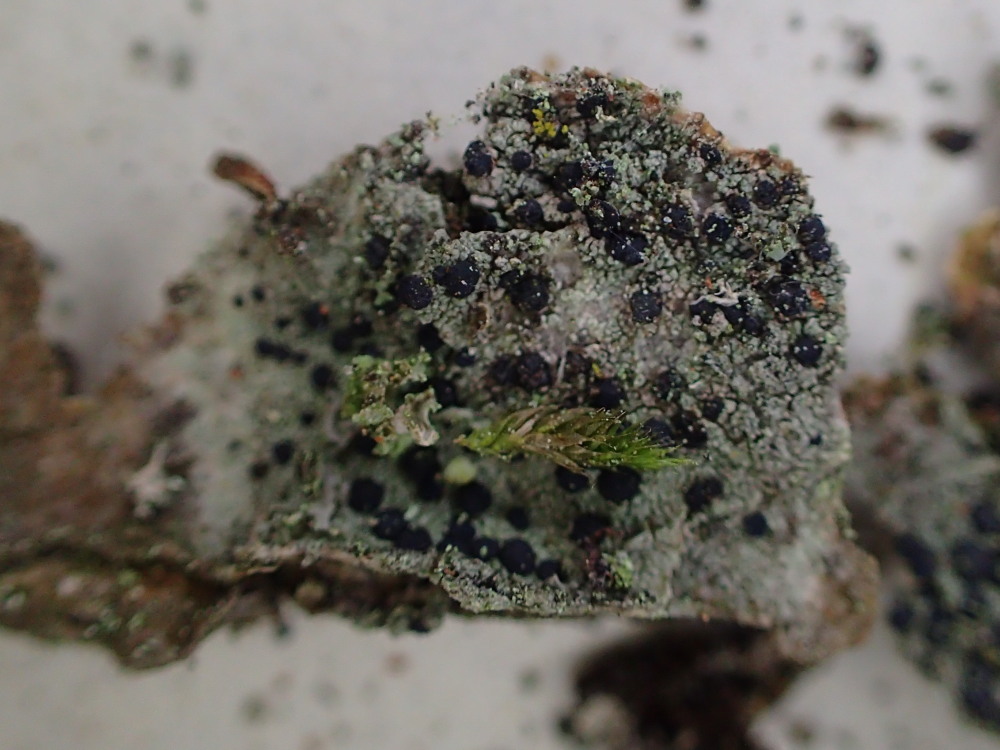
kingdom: Fungi
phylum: Ascomycota
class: Lecanoromycetes
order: Lecanorales
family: Lecanoraceae
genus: Lecidella
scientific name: Lecidella elaeochroma
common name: grågrøn skivelav
